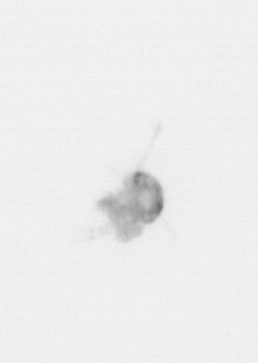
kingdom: Animalia
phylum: Arthropoda
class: Copepoda
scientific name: Copepoda
